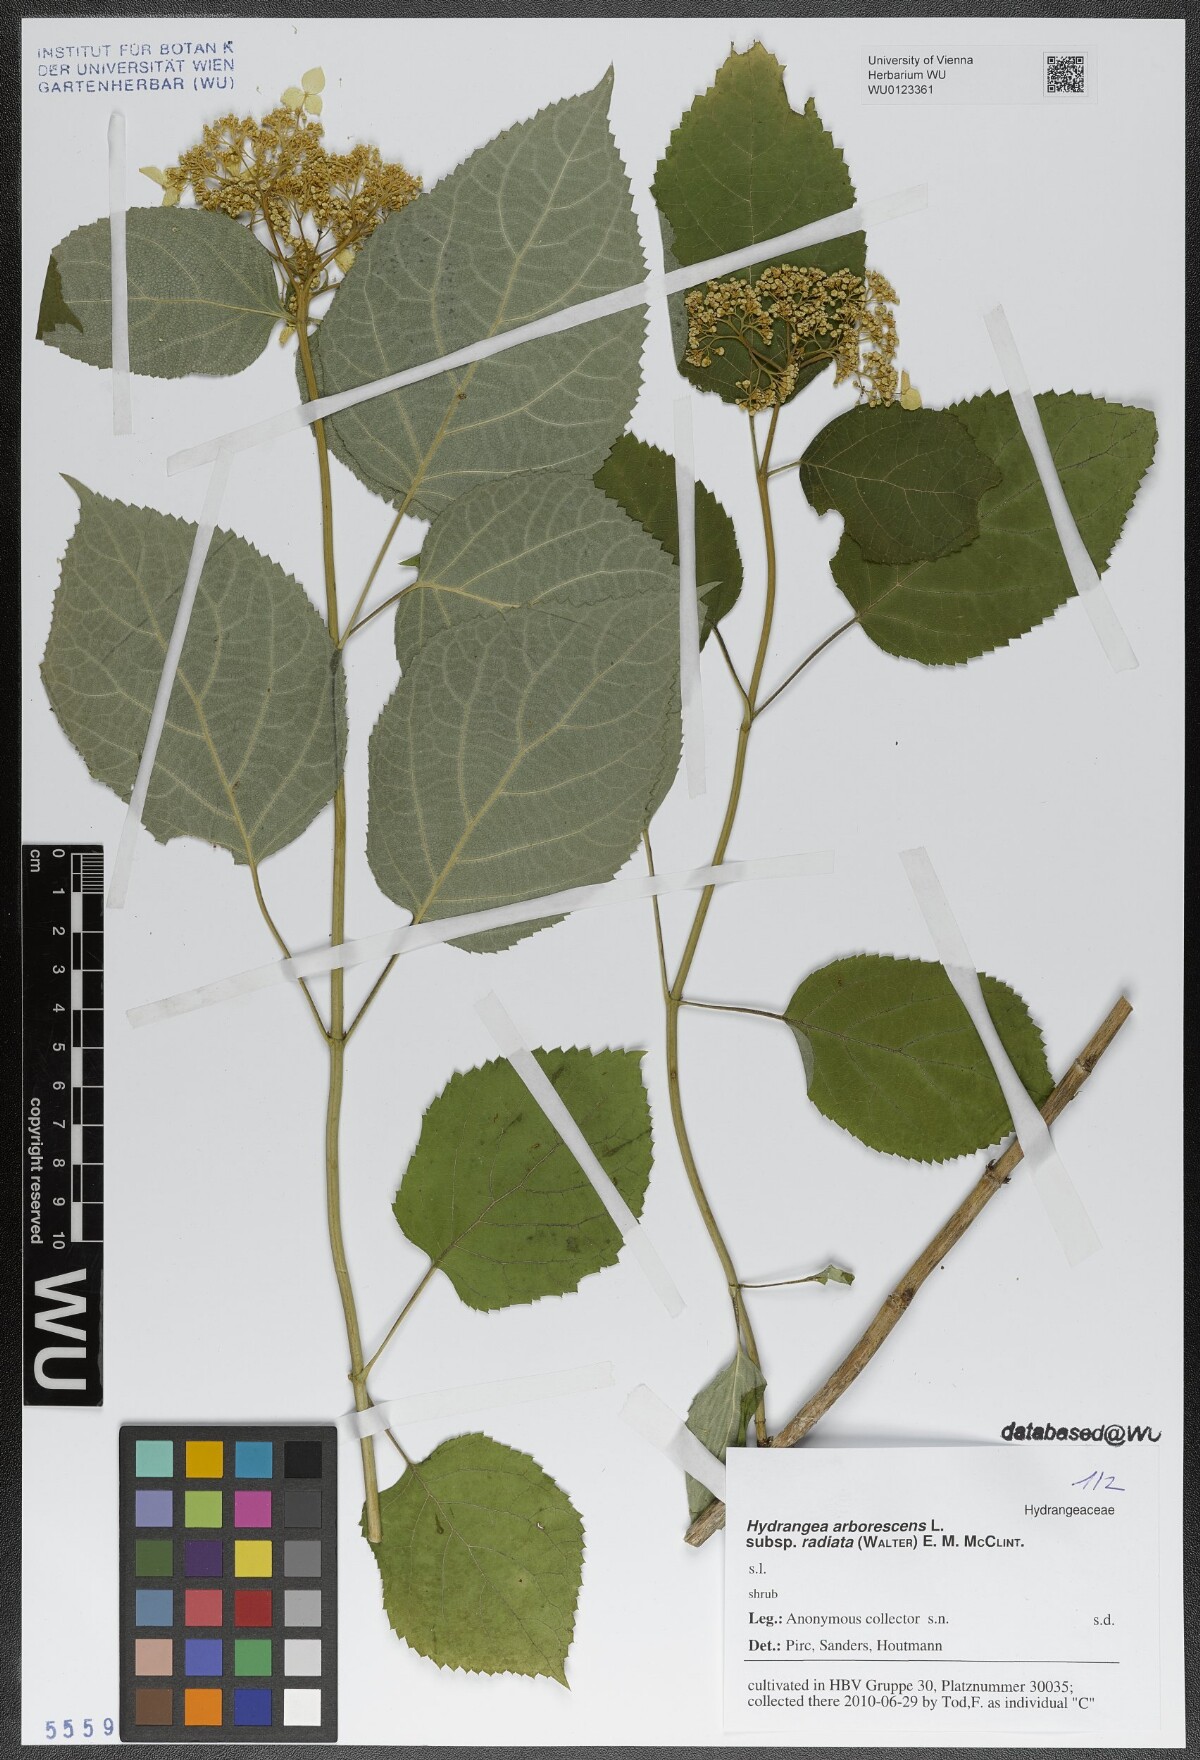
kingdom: Plantae
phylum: Tracheophyta
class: Magnoliopsida
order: Cornales
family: Hydrangeaceae
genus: Hydrangea
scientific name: Hydrangea radiata
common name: Silverleaf hydrangea
